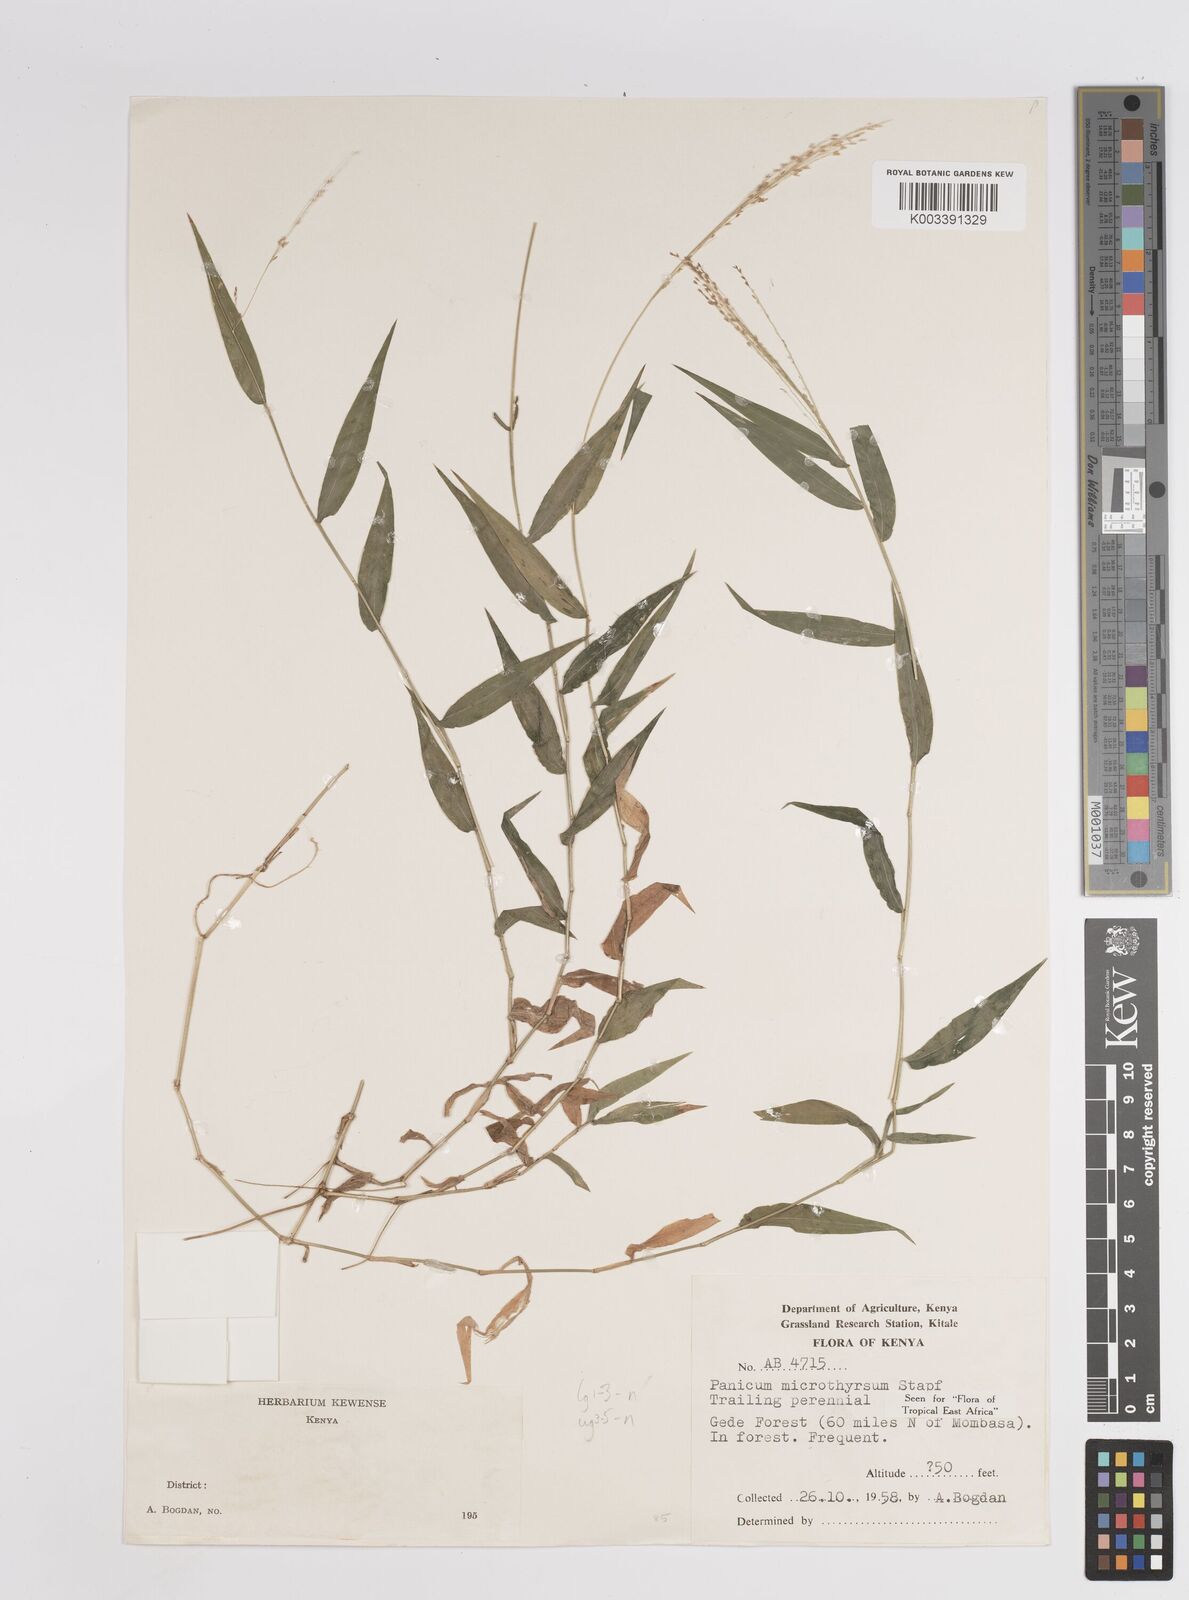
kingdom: Plantae
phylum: Tracheophyta
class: Liliopsida
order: Poales
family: Poaceae
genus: Panicum
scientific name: Panicum laticomum
